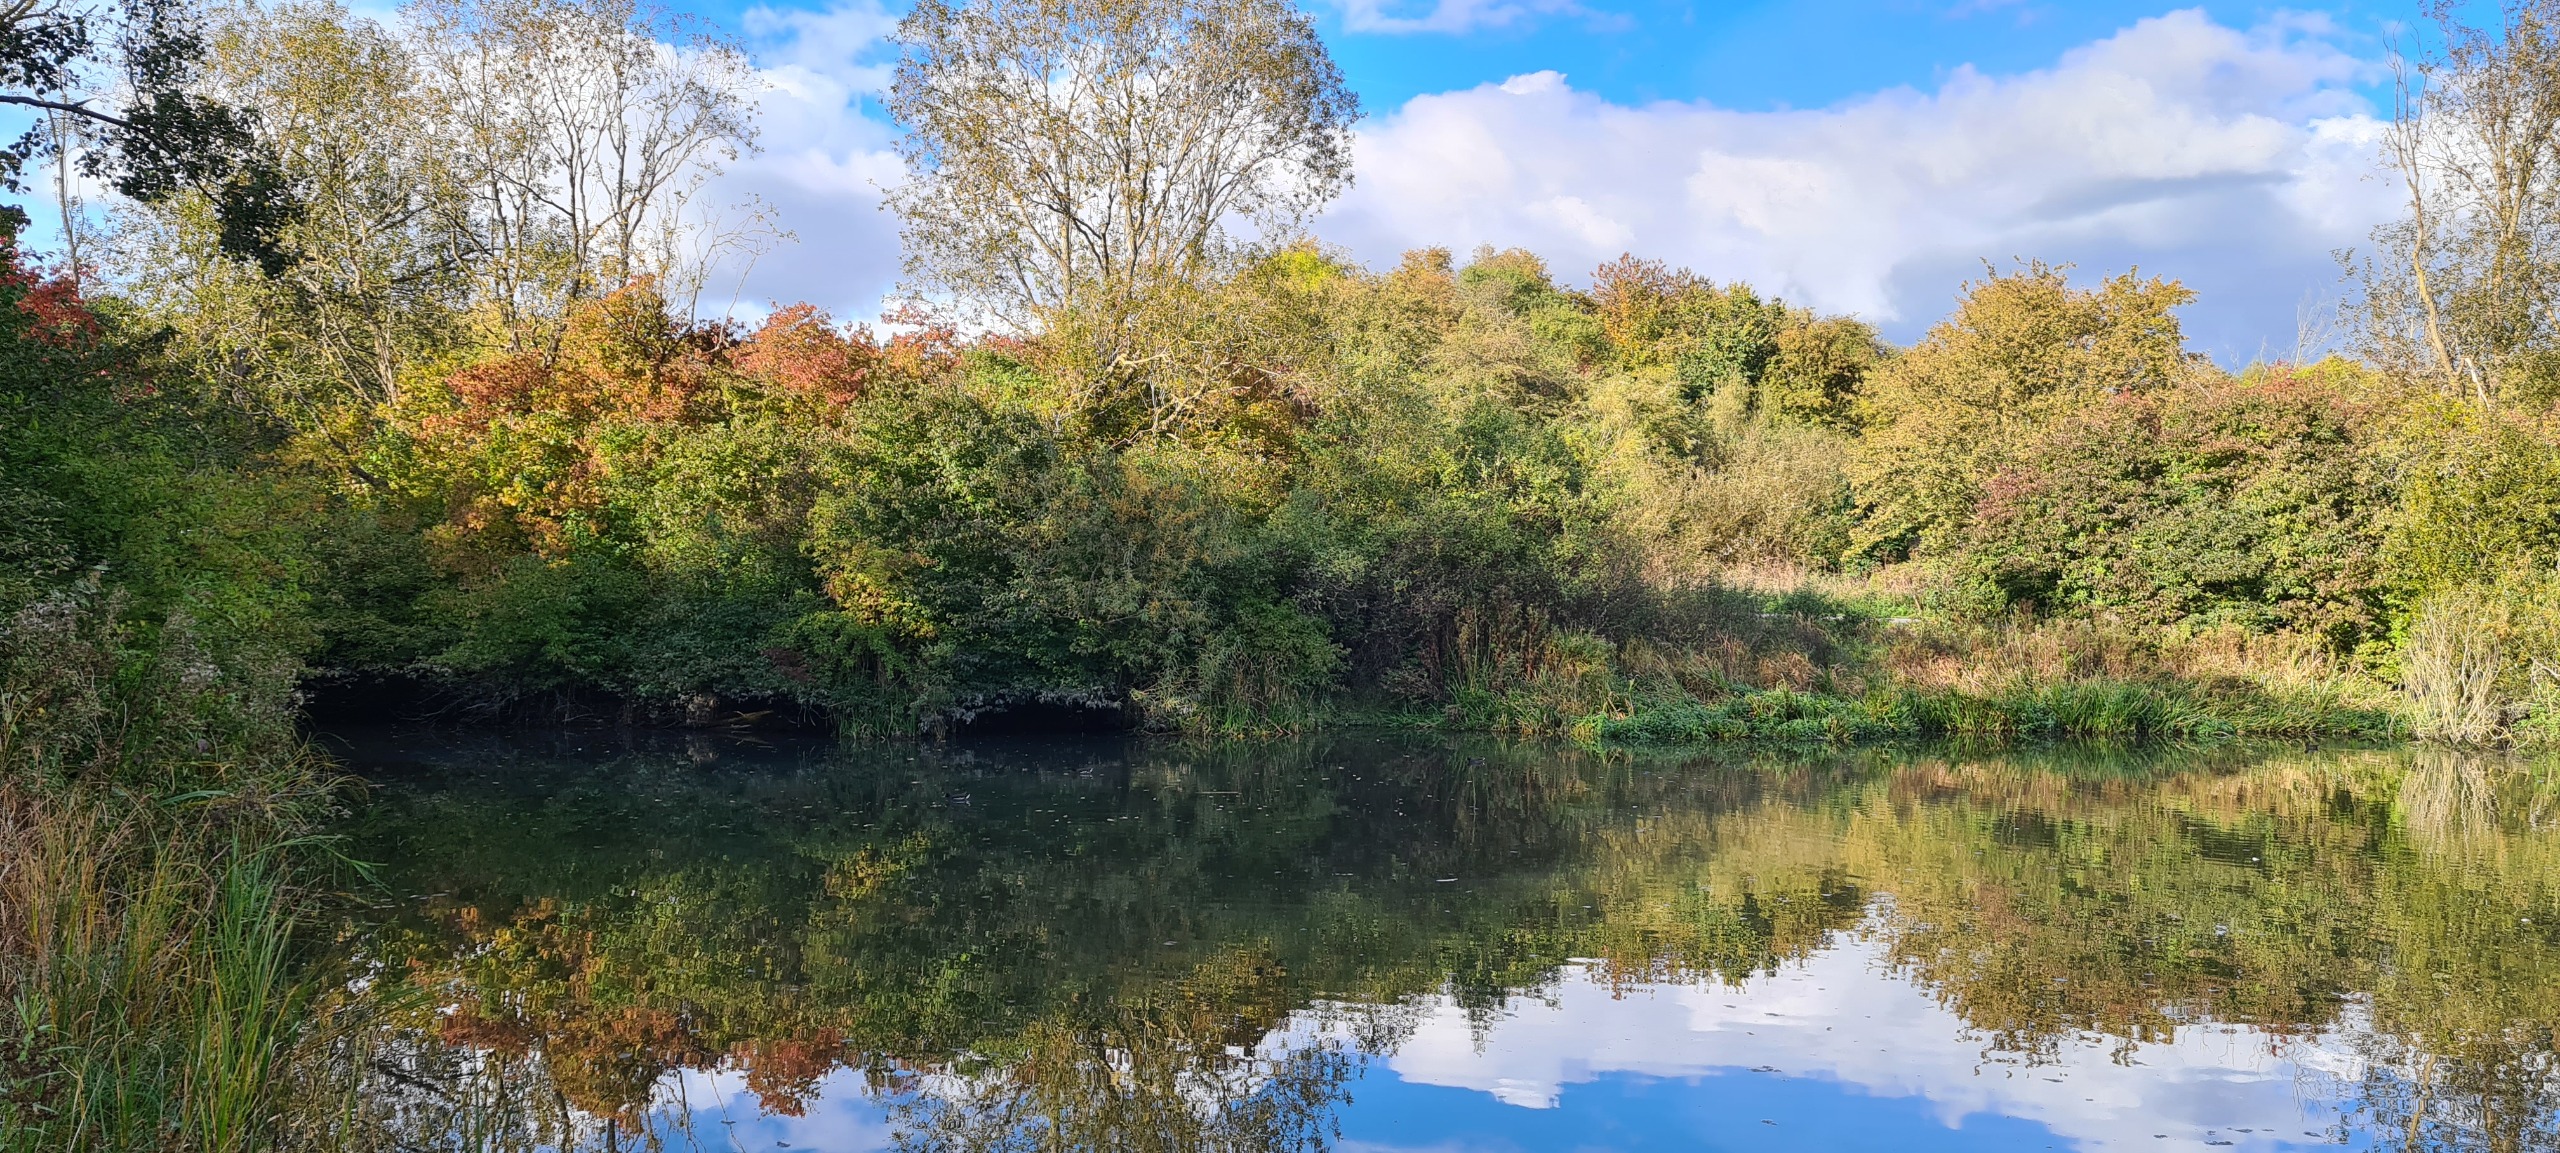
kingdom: Animalia
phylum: Chordata
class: Aves
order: Coraciiformes
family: Alcedinidae
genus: Alcedo
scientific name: Alcedo atthis
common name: Isfugl
